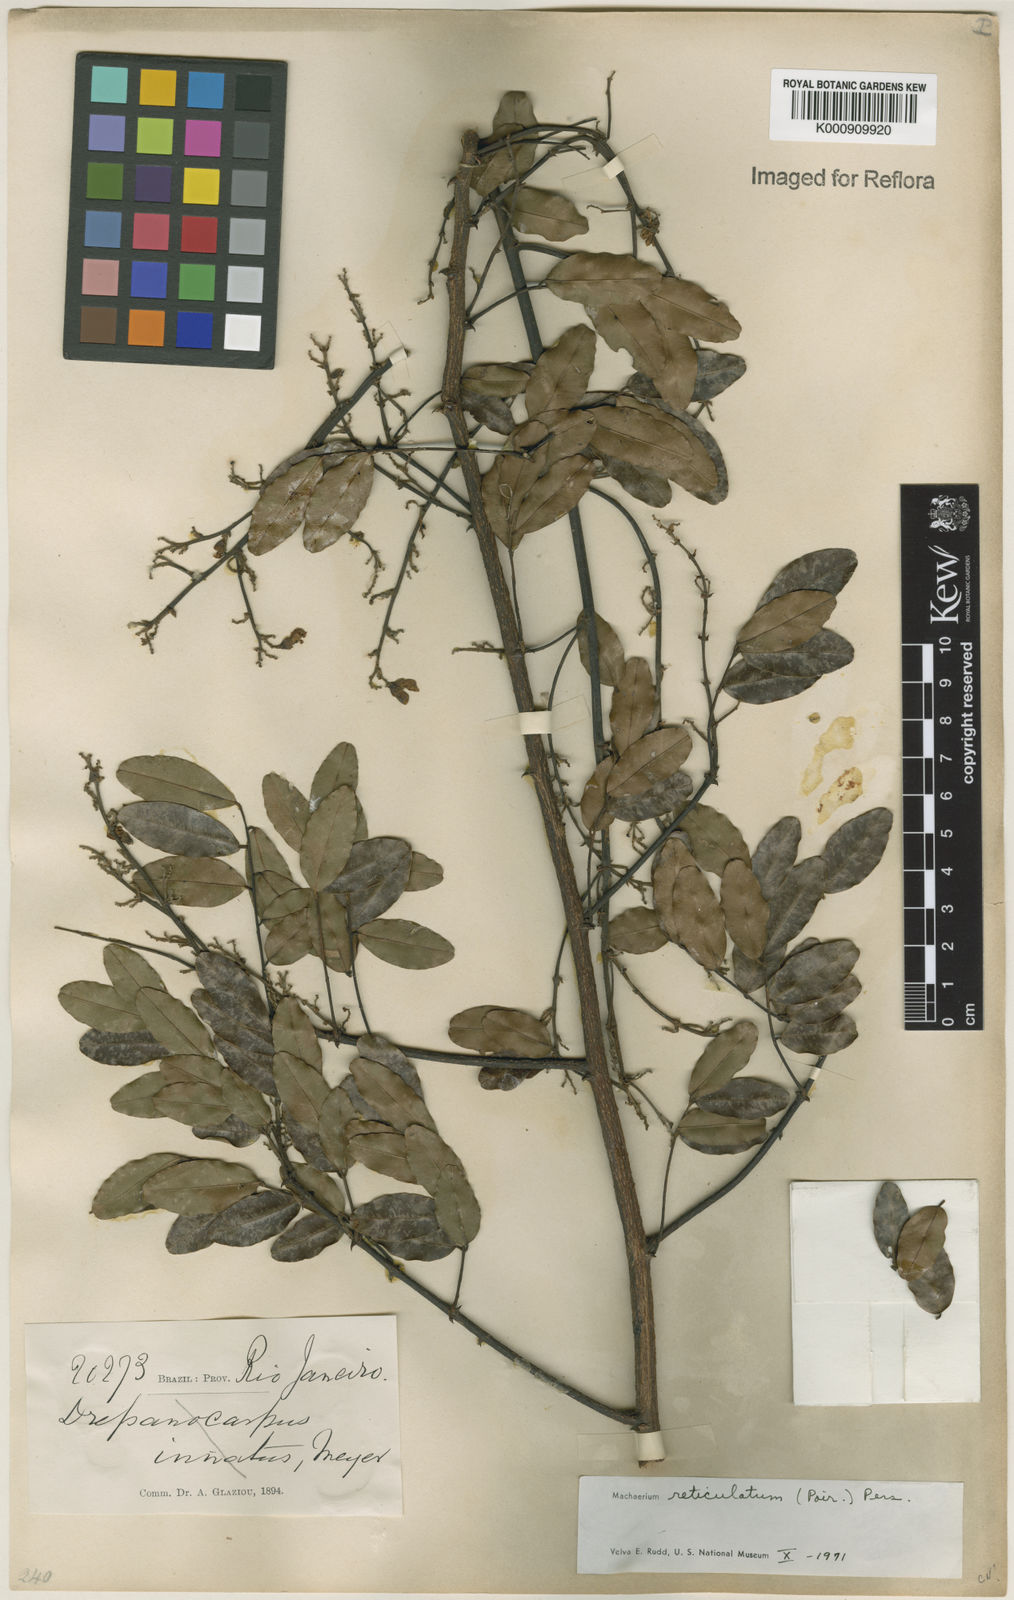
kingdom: Plantae
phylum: Tracheophyta
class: Magnoliopsida
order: Fabales
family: Fabaceae
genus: Machaerium
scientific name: Machaerium reticulatum
